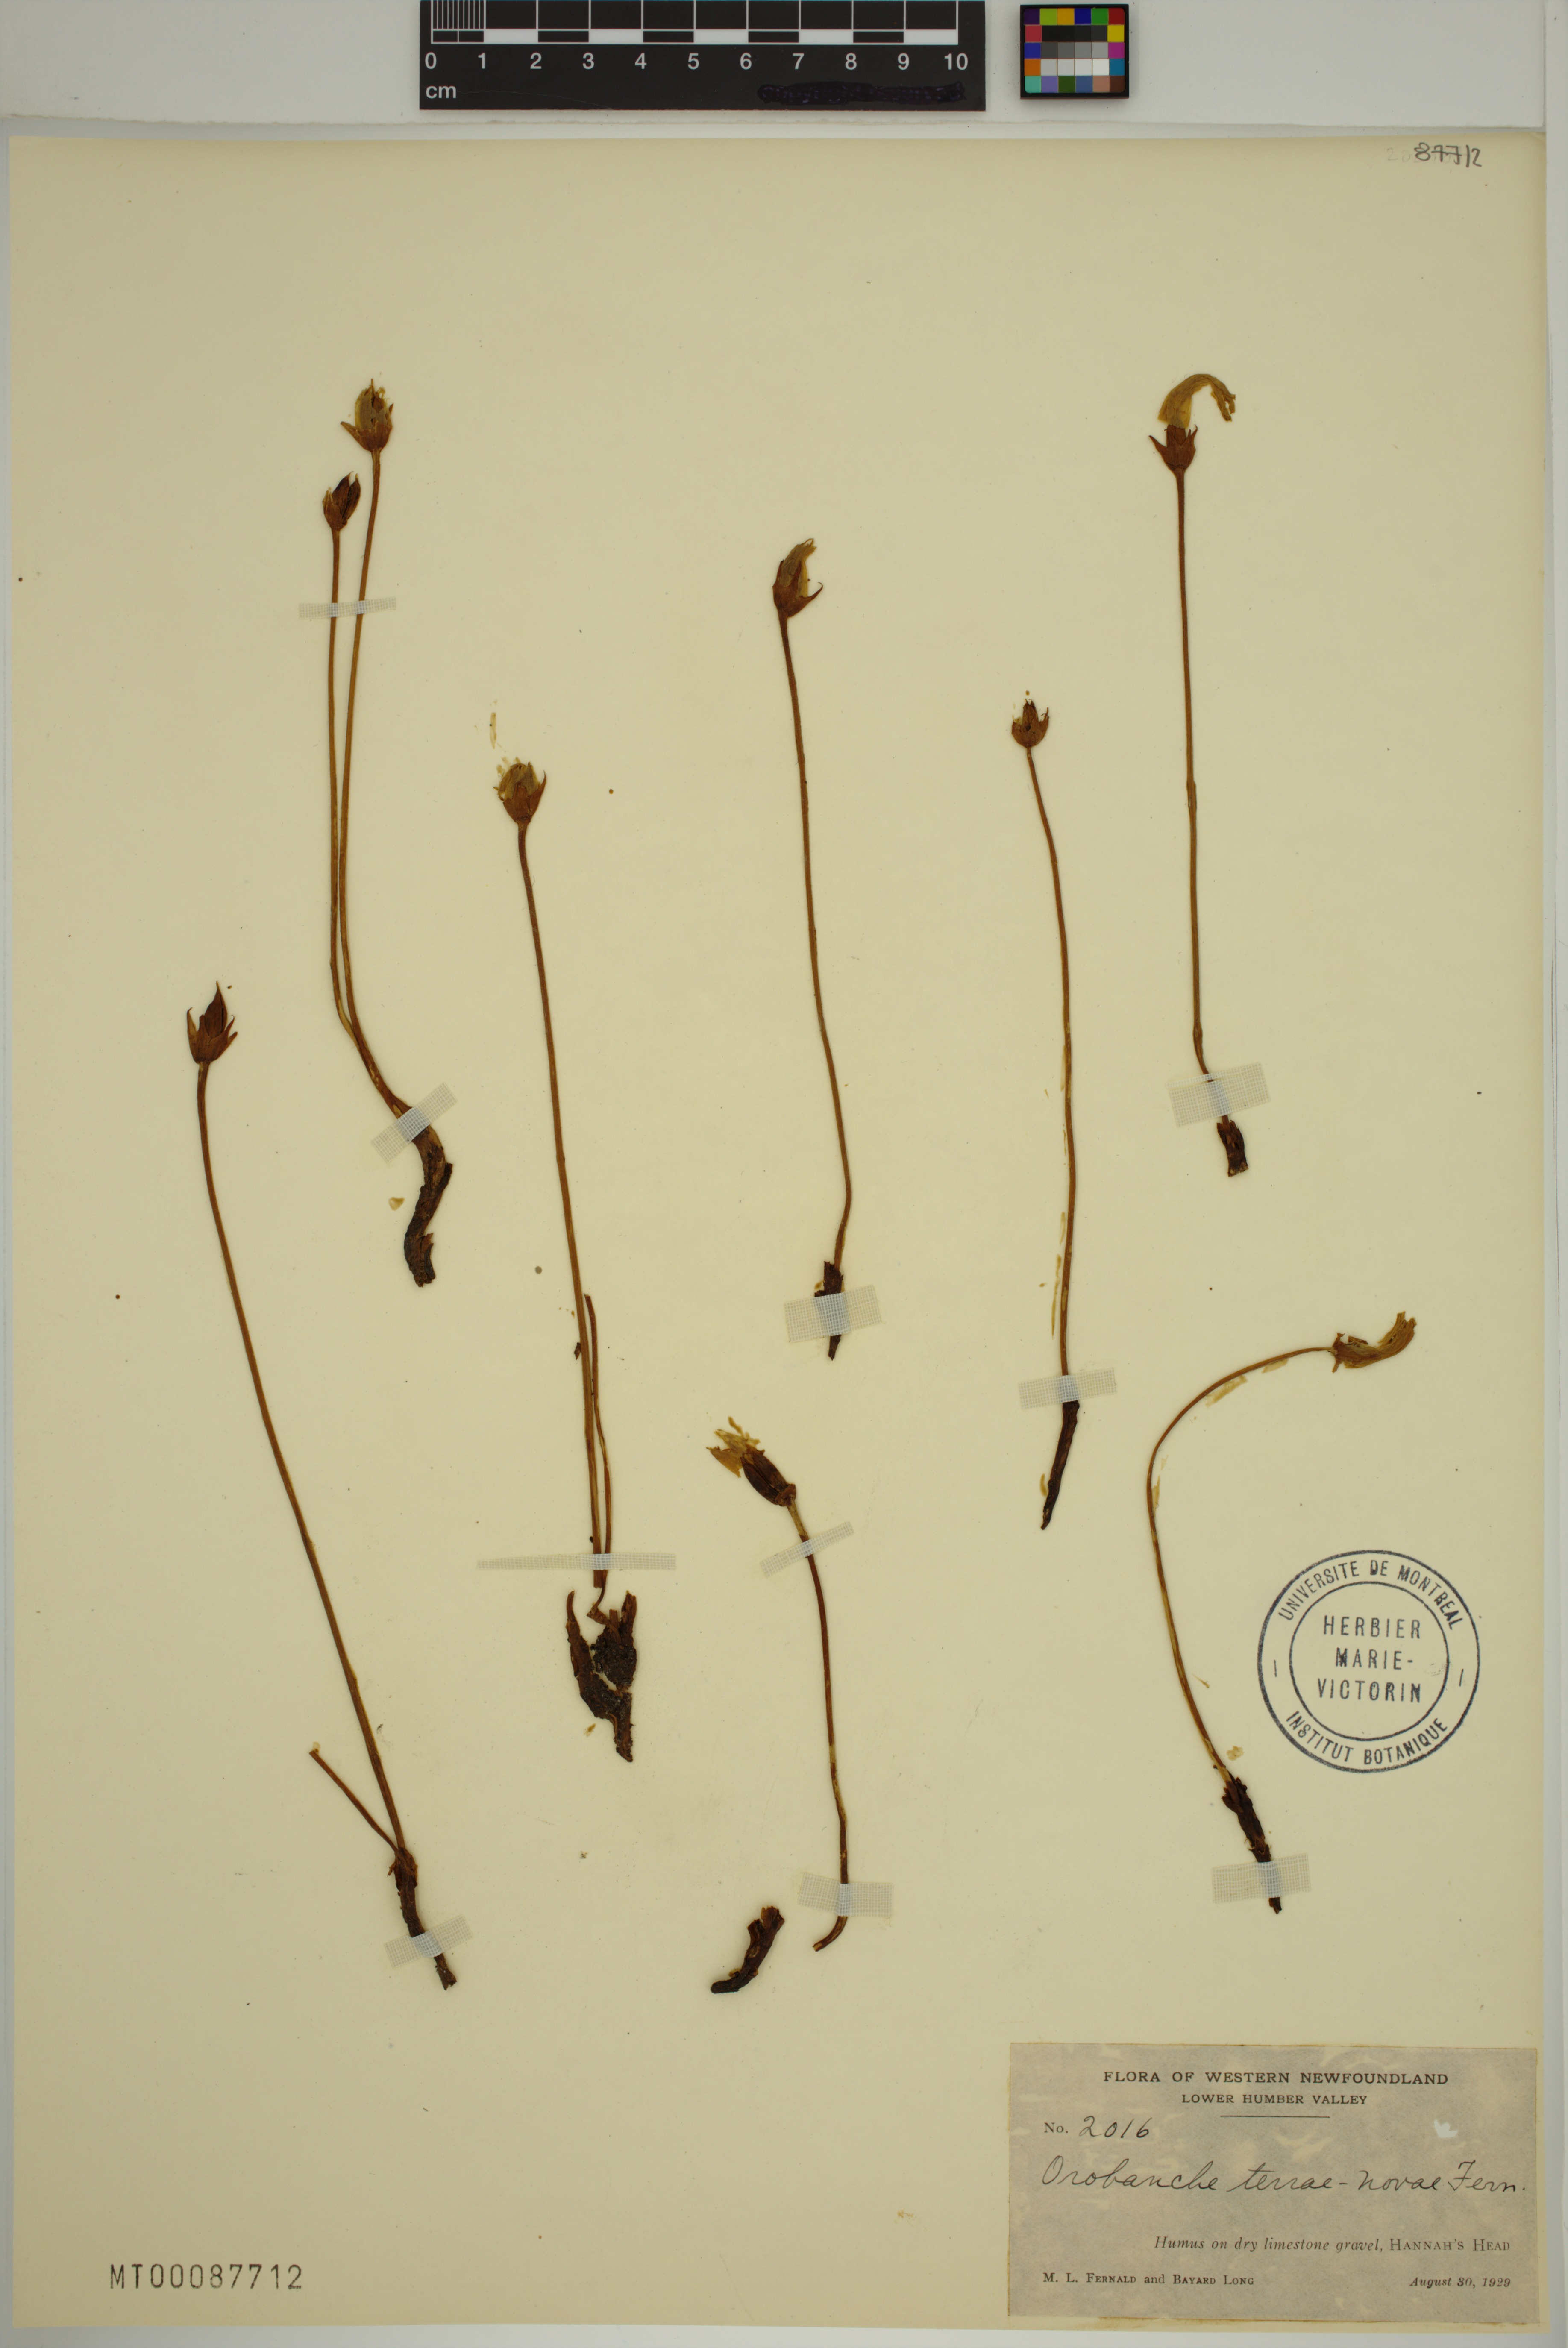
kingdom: Plantae
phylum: Tracheophyta
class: Magnoliopsida
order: Lamiales
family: Orobanchaceae
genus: Aphyllon
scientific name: Aphyllon uniflorum
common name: One-flowered broomrape
